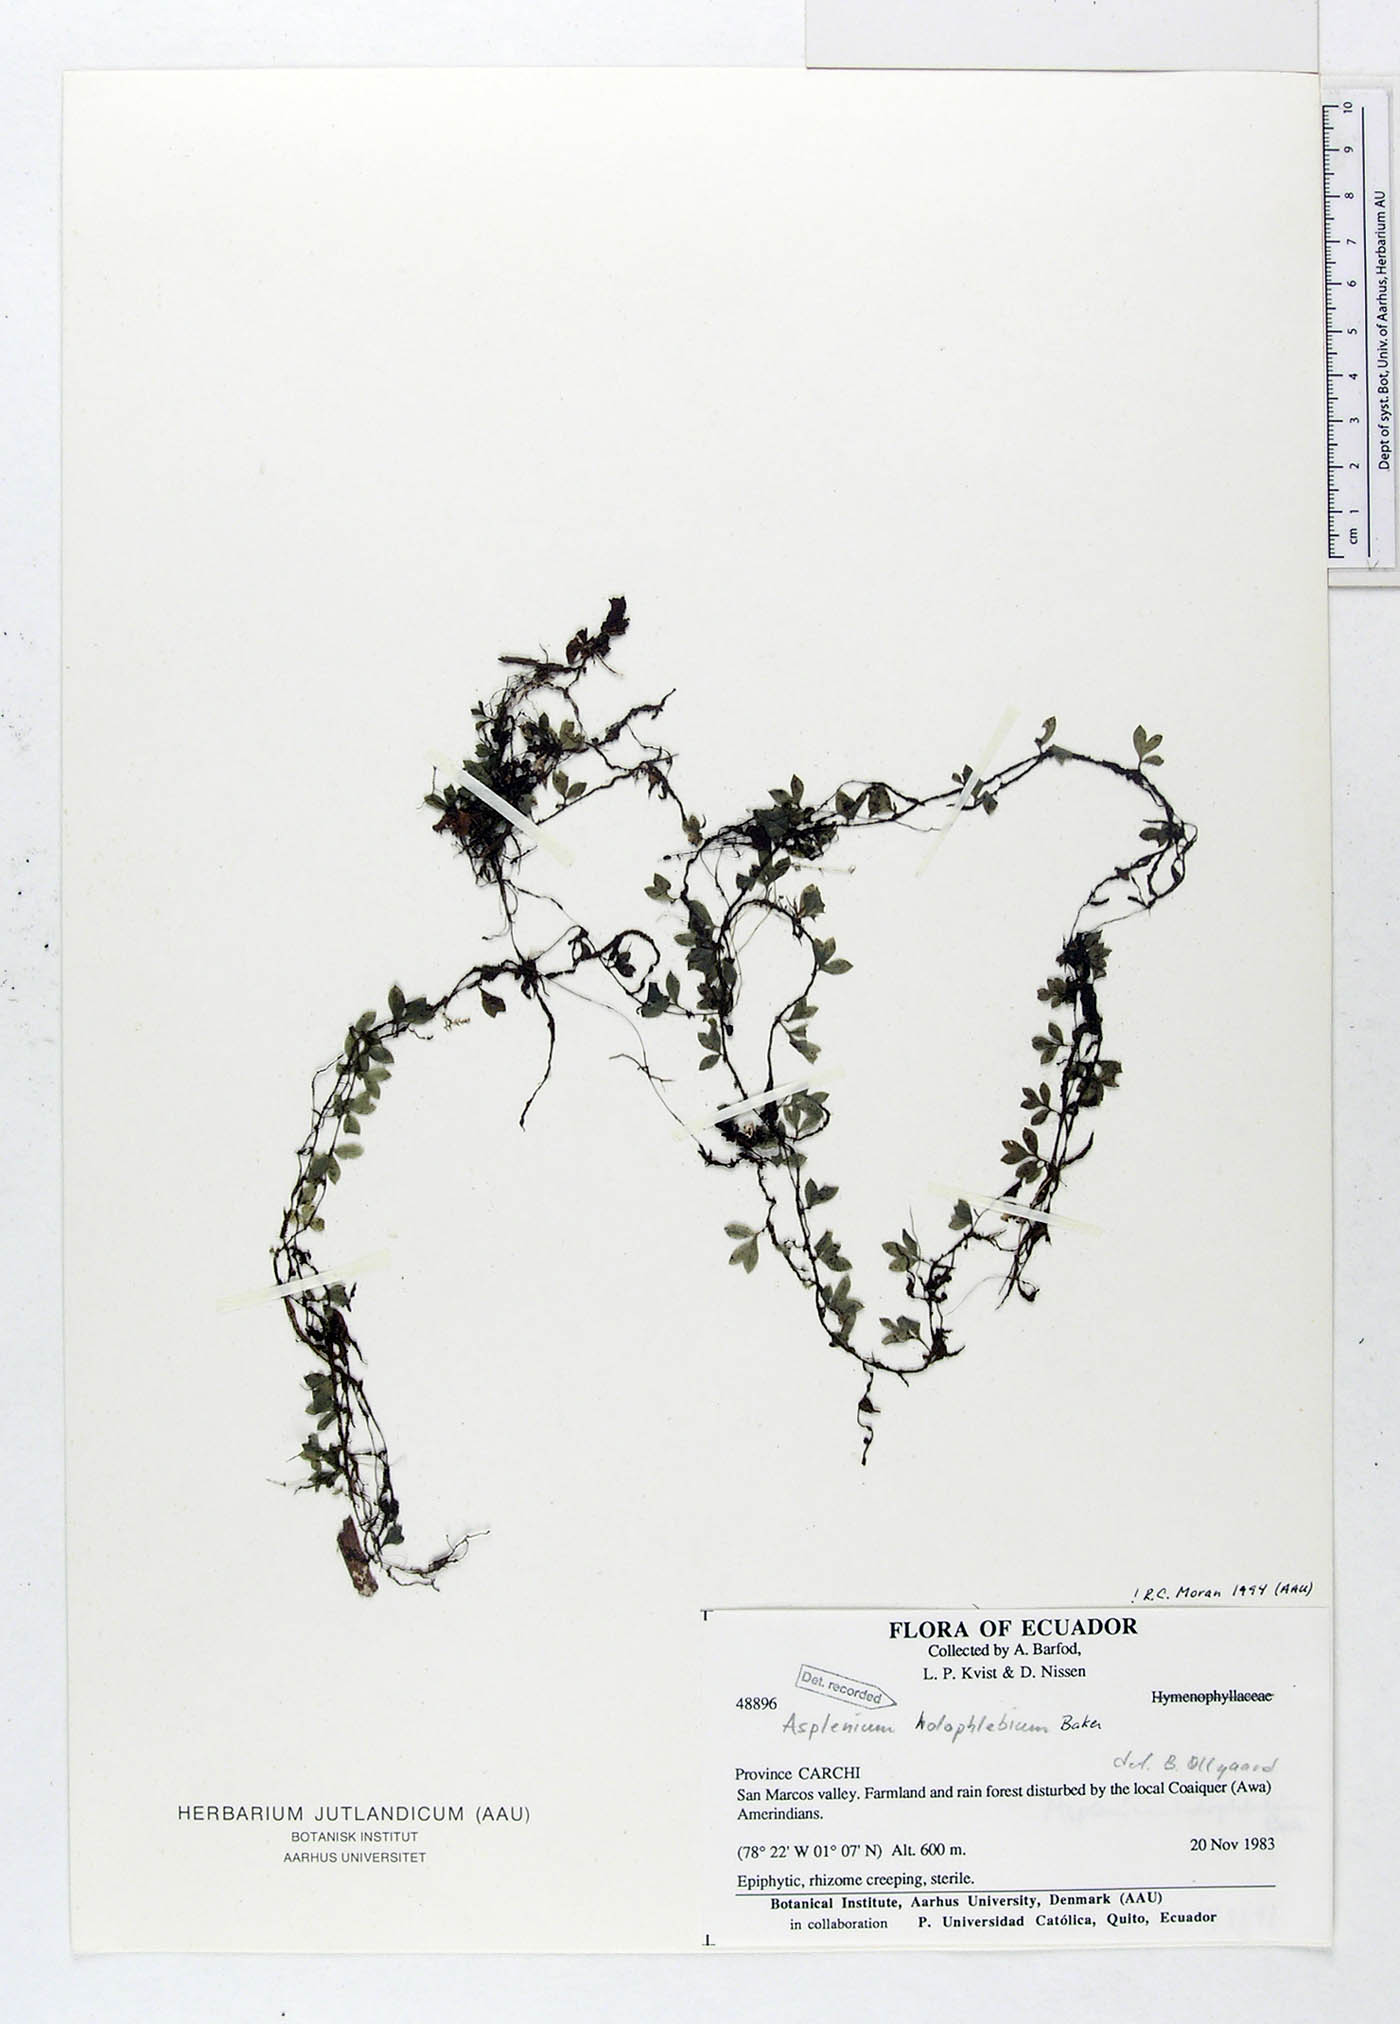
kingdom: Plantae
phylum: Tracheophyta
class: Polypodiopsida
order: Polypodiales
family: Aspleniaceae
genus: Asplenium
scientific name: Asplenium holophlebium
